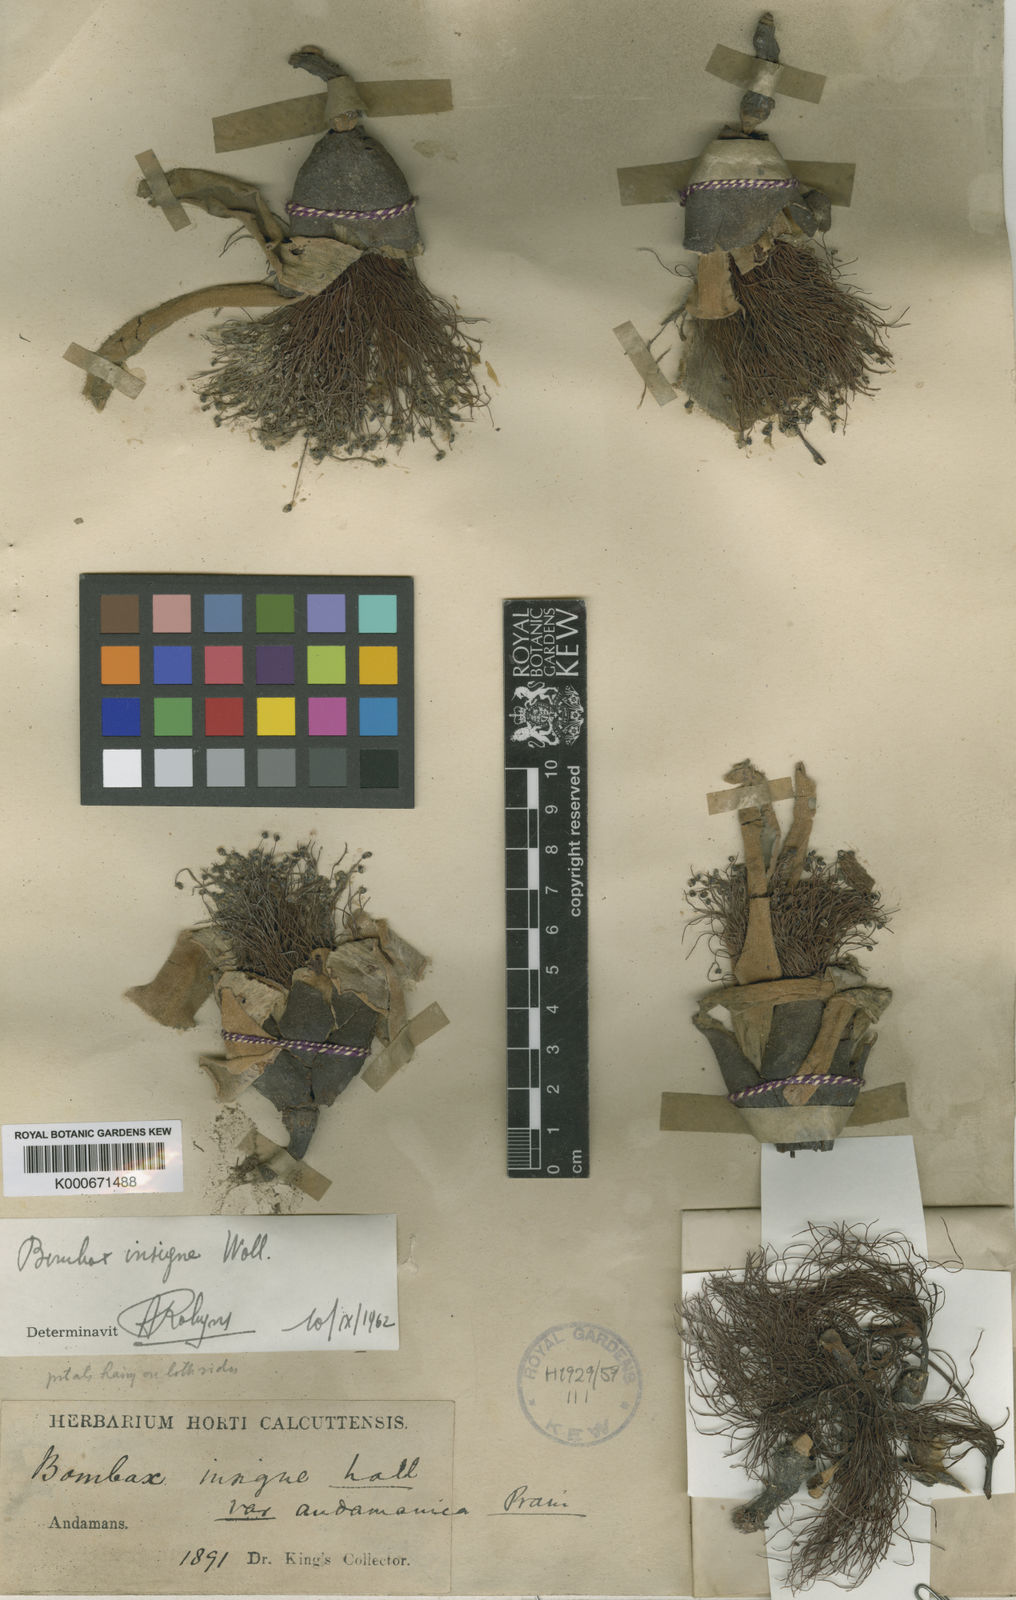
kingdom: Plantae
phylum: Tracheophyta
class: Magnoliopsida
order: Malvales
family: Malvaceae
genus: Bombax
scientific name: Bombax insigne
